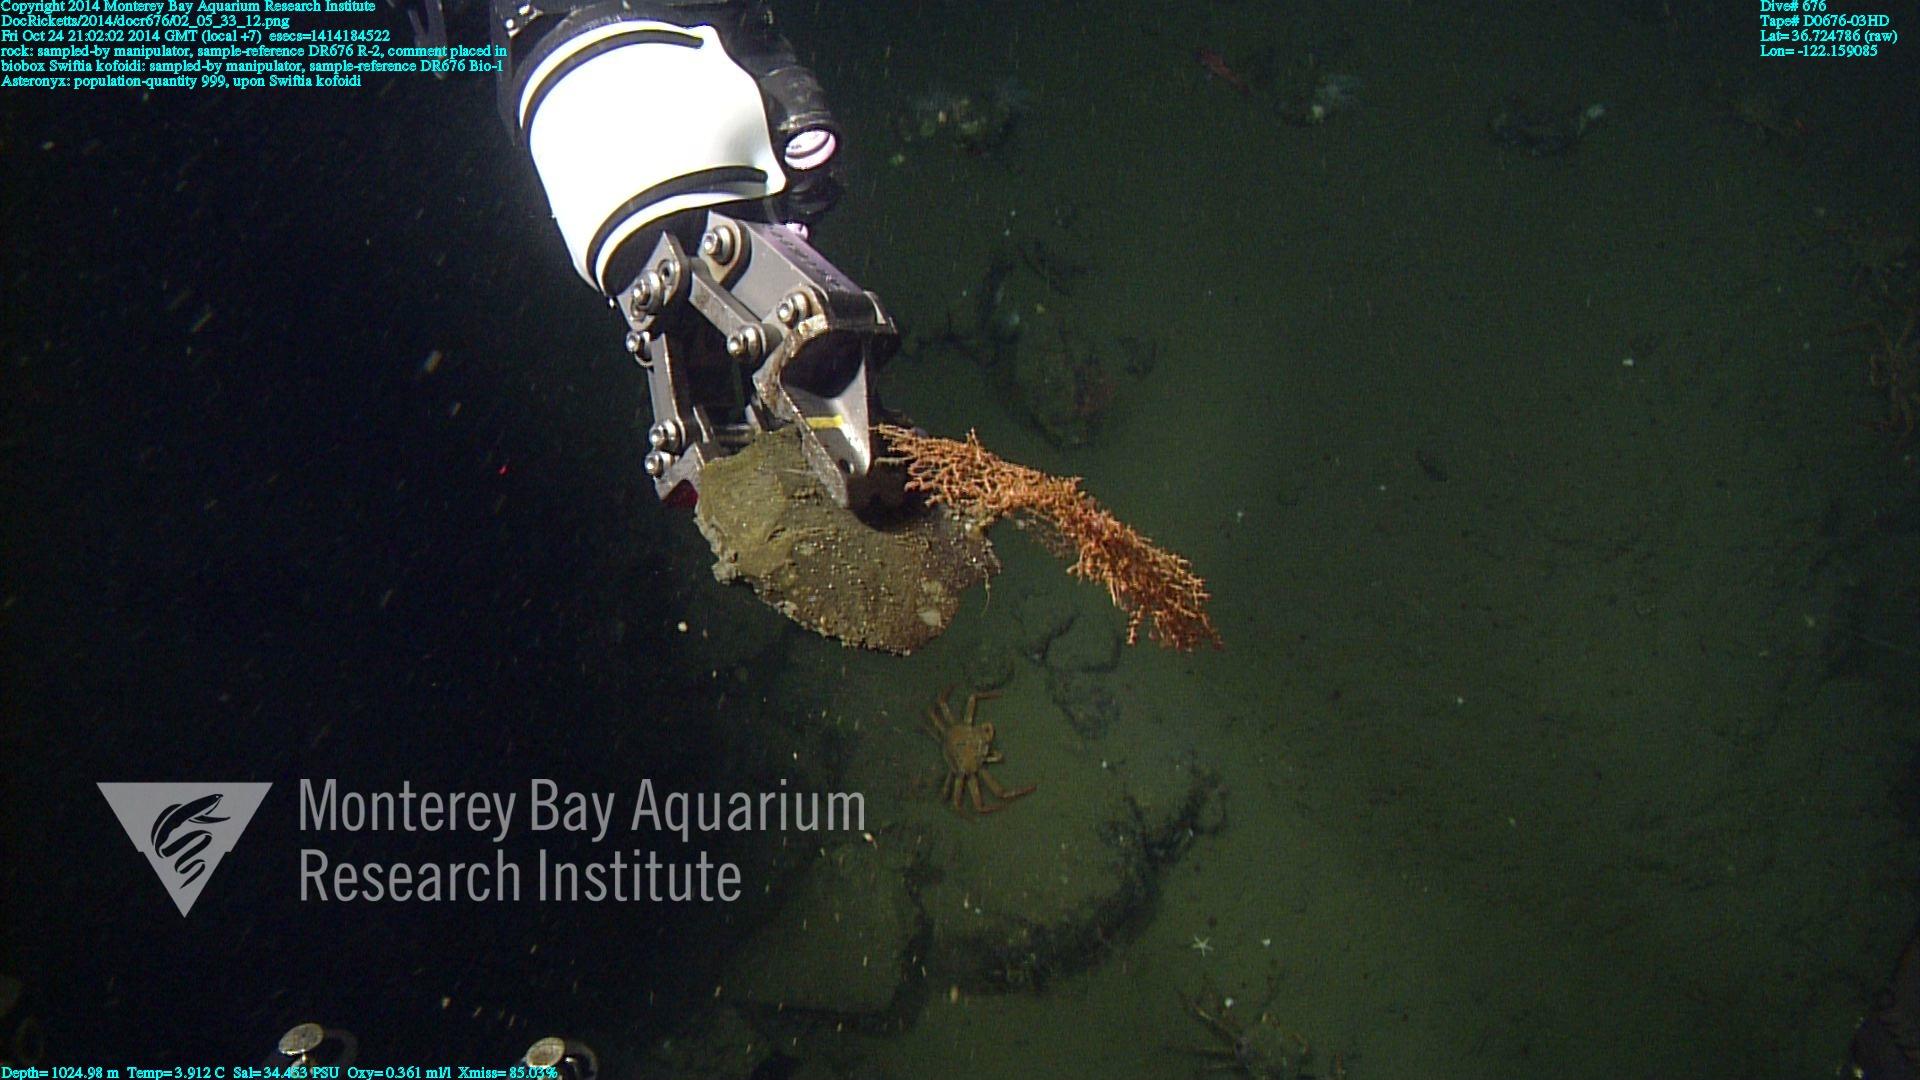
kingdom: Animalia
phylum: Cnidaria
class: Anthozoa
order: Malacalcyonacea
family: Gorgoniidae
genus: Callistephanus
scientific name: Callistephanus kofoidi
